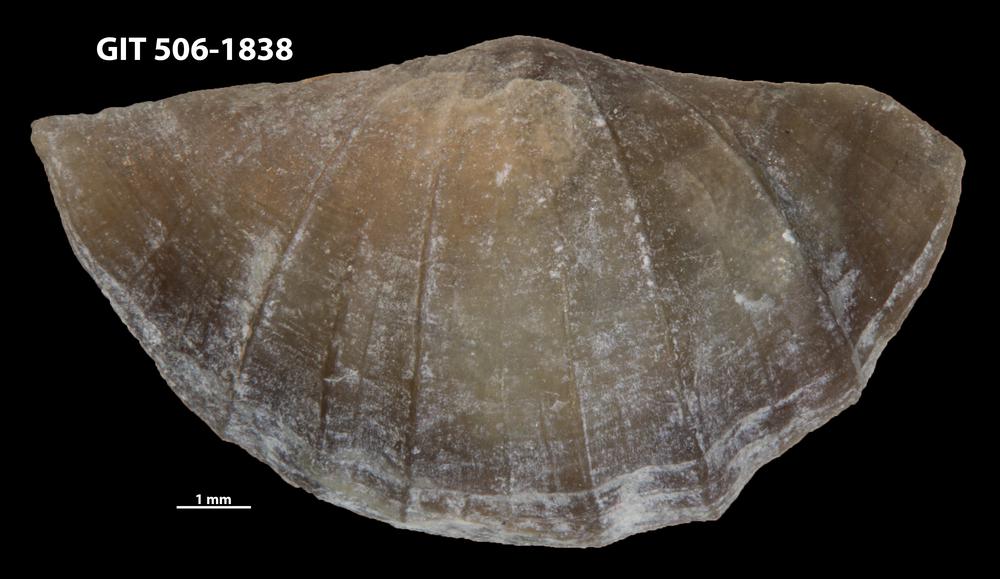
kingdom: Animalia
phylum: Brachiopoda
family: Sowerbyellidae
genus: Ygerodiscus
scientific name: Ygerodiscus Eoplectodonta bella
